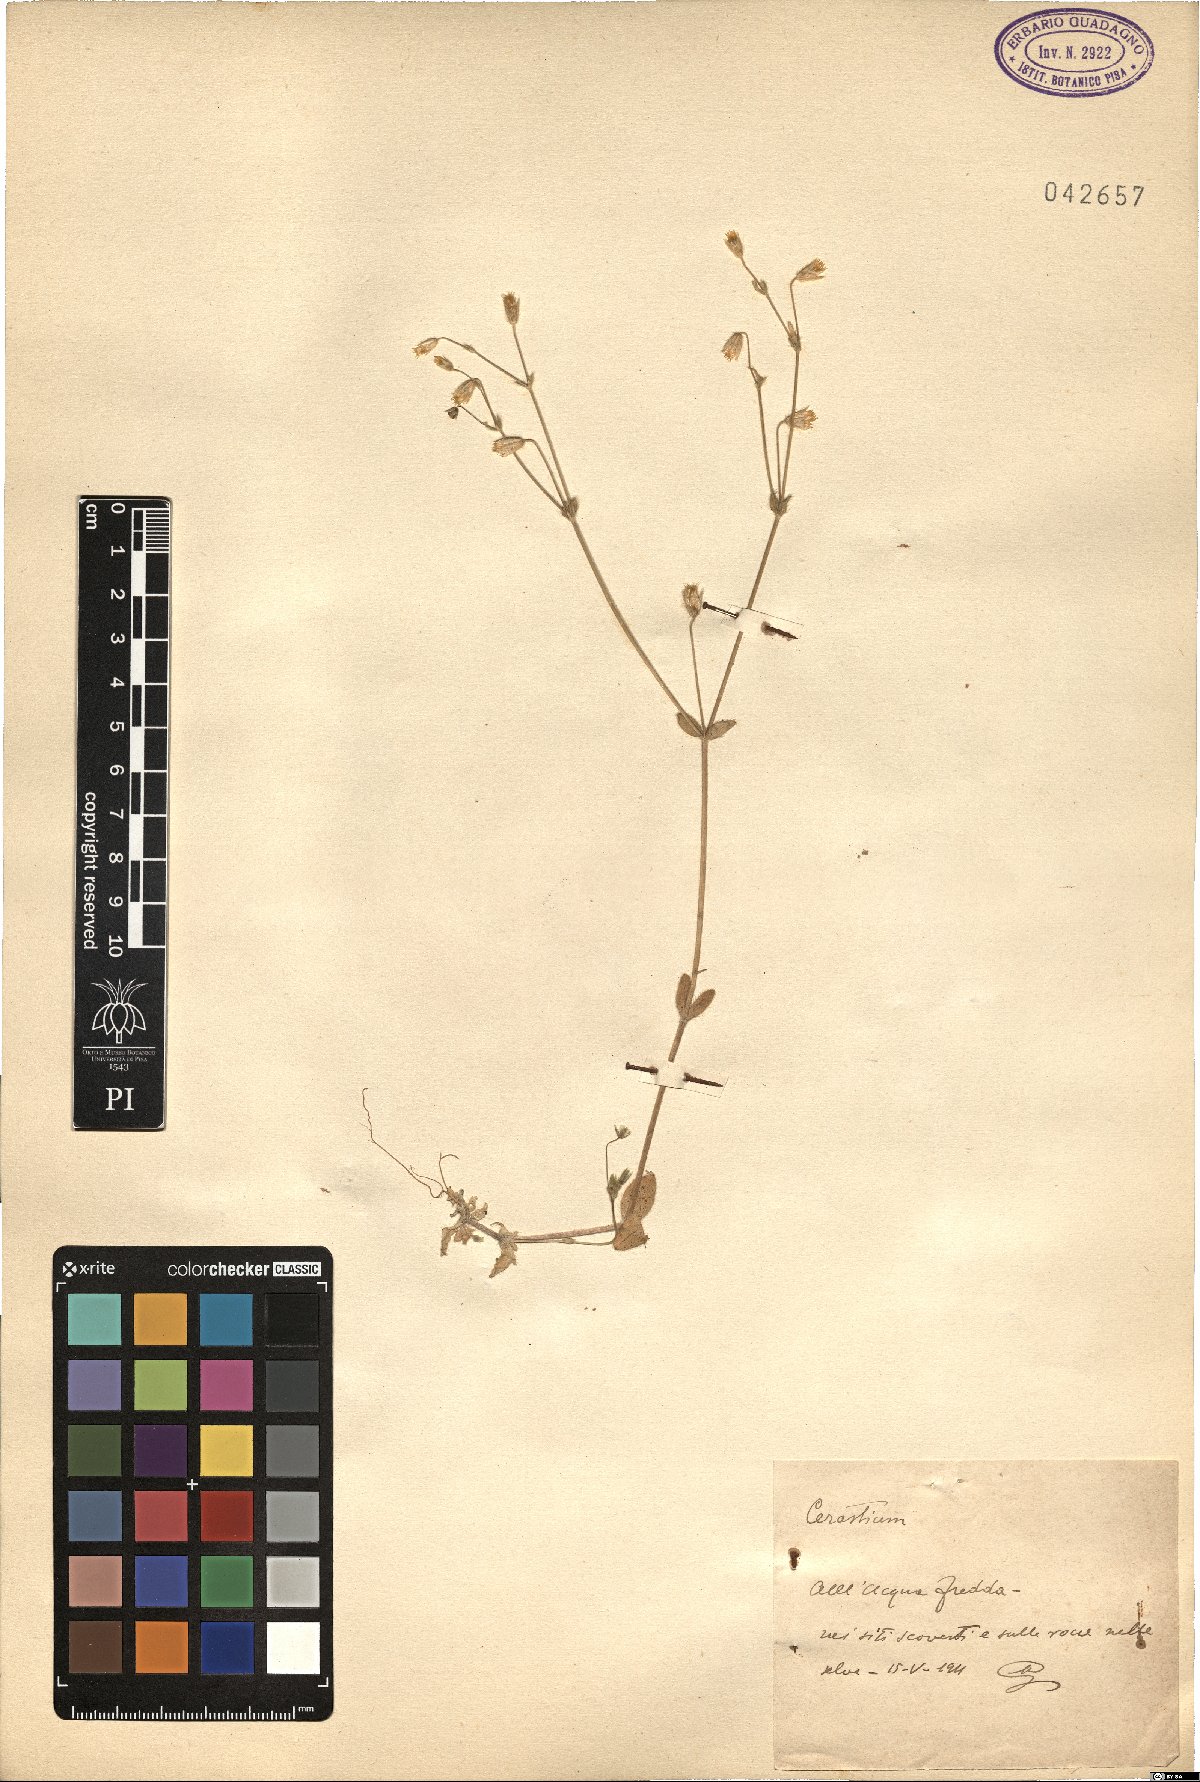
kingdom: Plantae
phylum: Tracheophyta
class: Magnoliopsida
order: Caryophyllales
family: Caryophyllaceae
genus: Cerastium
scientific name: Cerastium
